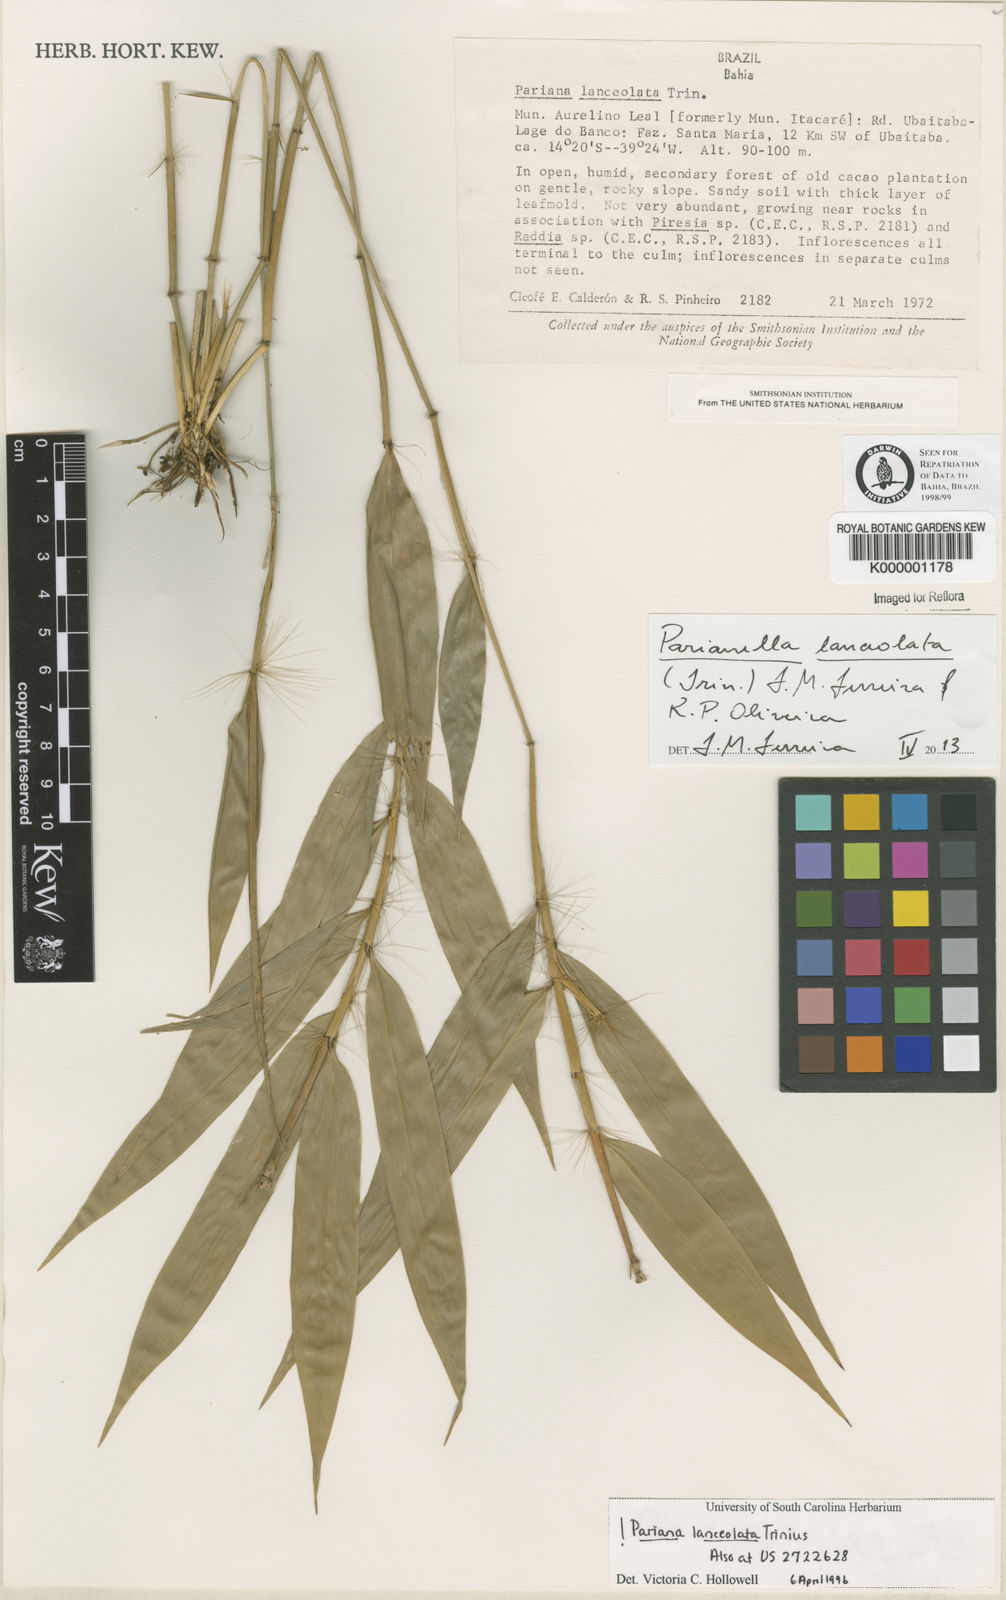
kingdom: Plantae
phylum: Tracheophyta
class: Liliopsida
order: Poales
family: Poaceae
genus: Parianella
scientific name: Parianella lanceolata
